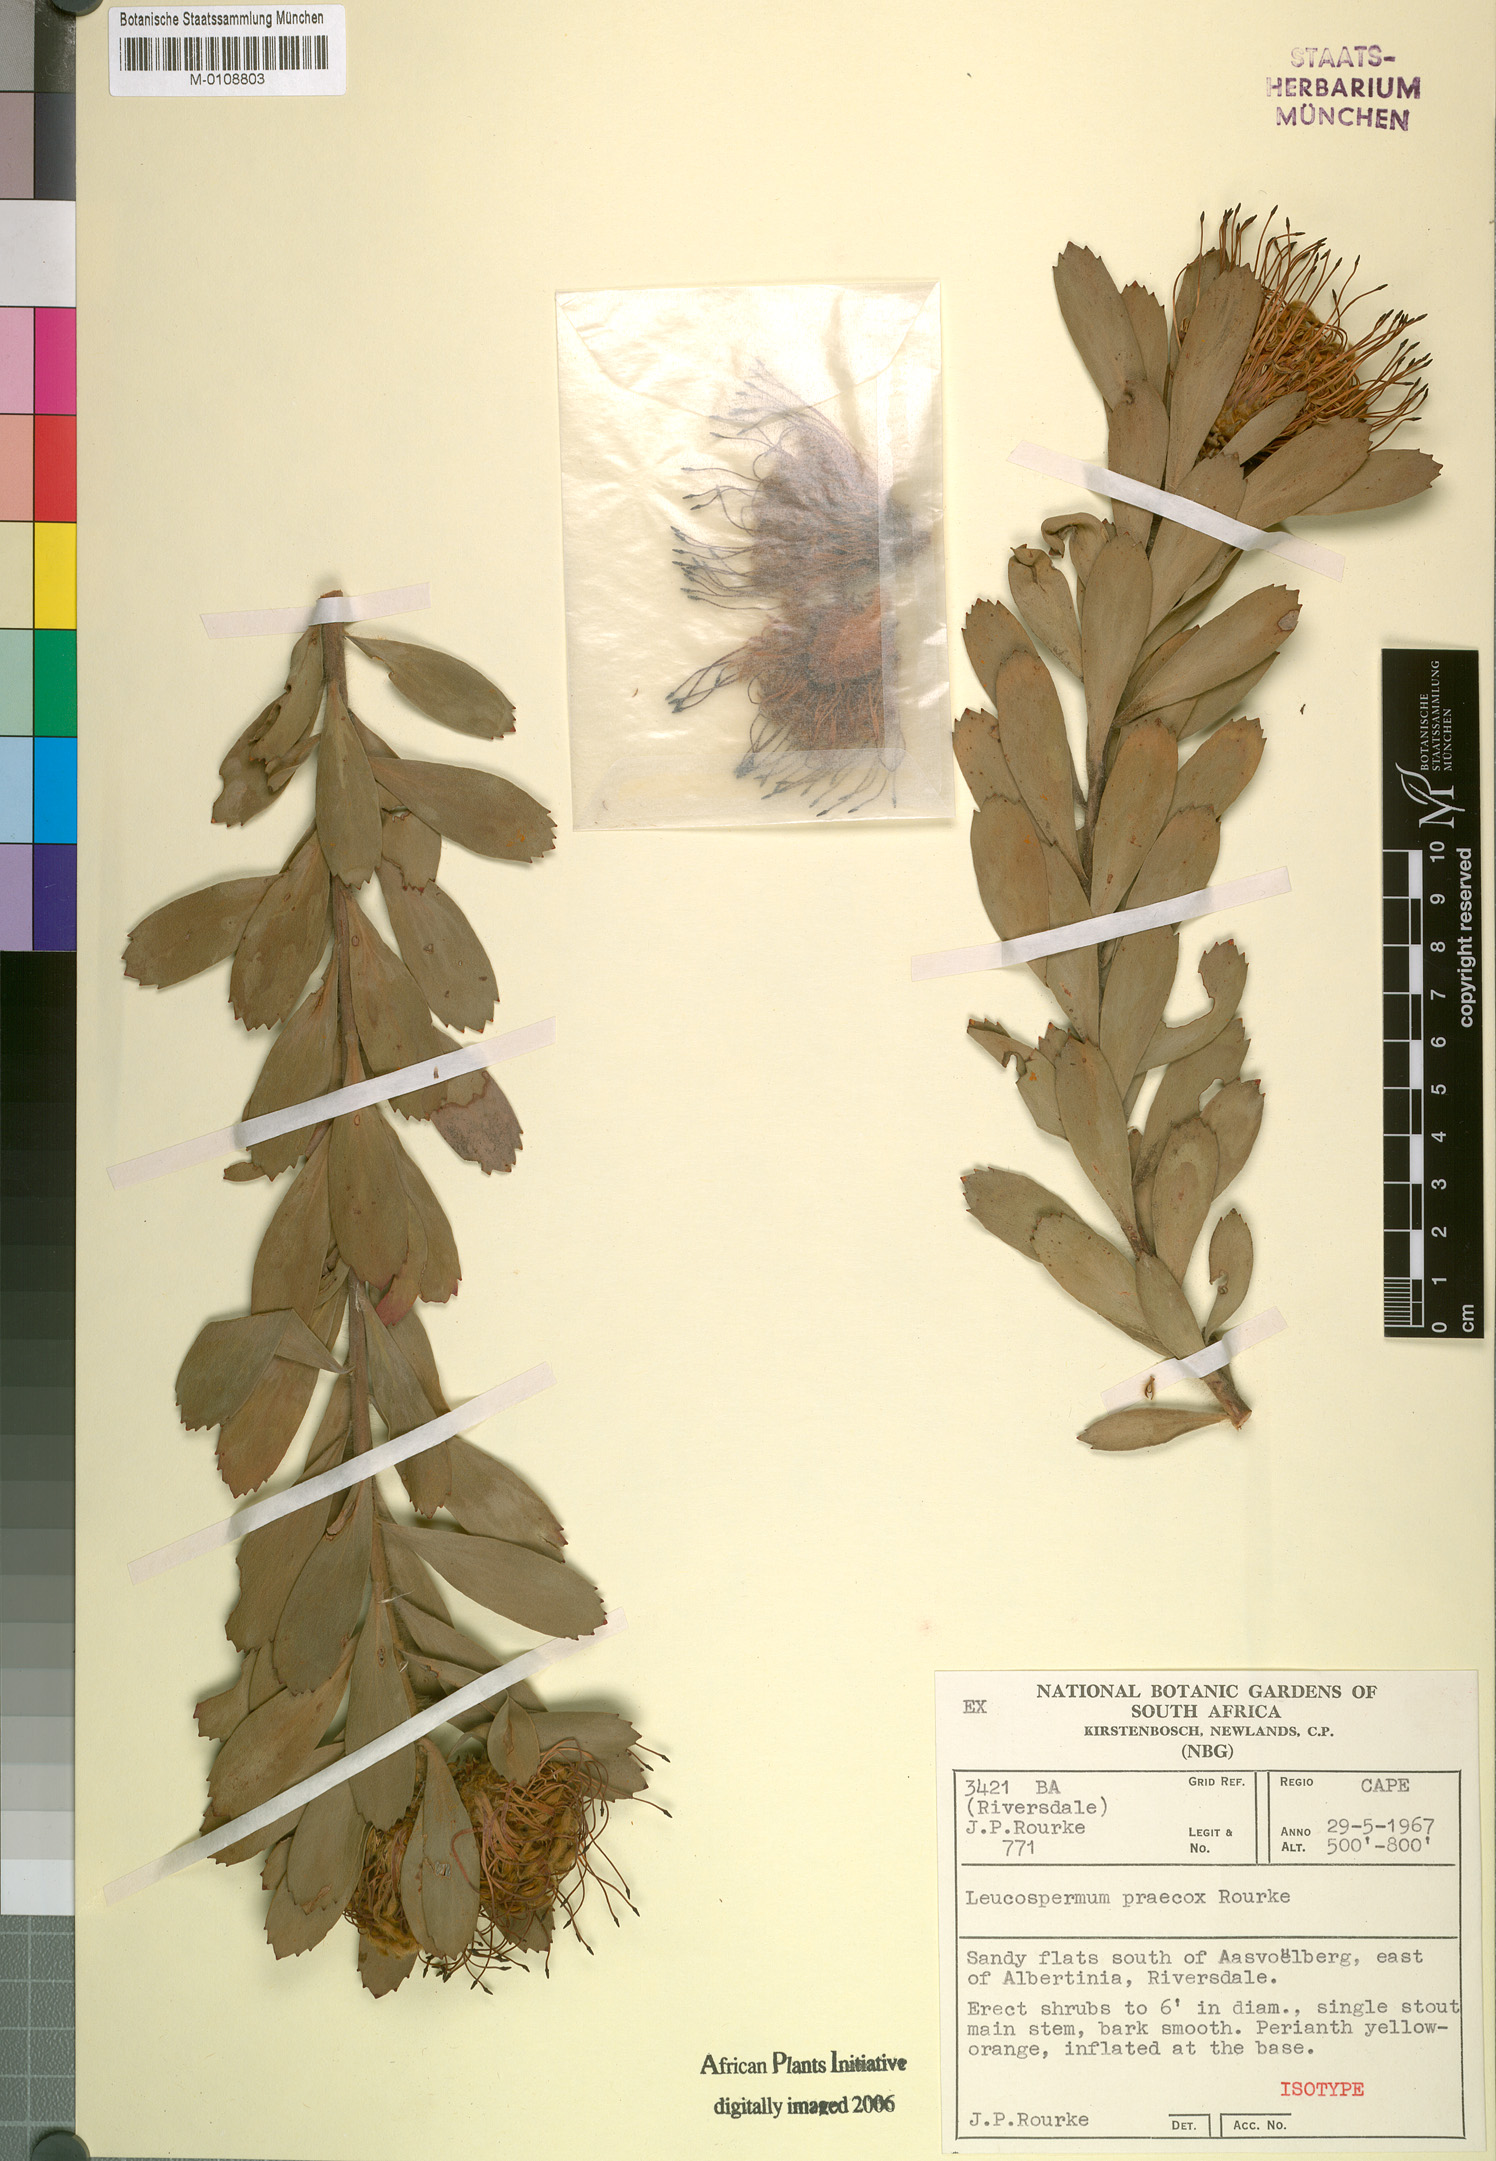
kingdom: Plantae
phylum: Tracheophyta
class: Magnoliopsida
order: Proteales
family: Proteaceae
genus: Leucospermum
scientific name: Leucospermum praecox
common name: Mossel bay pincushion
